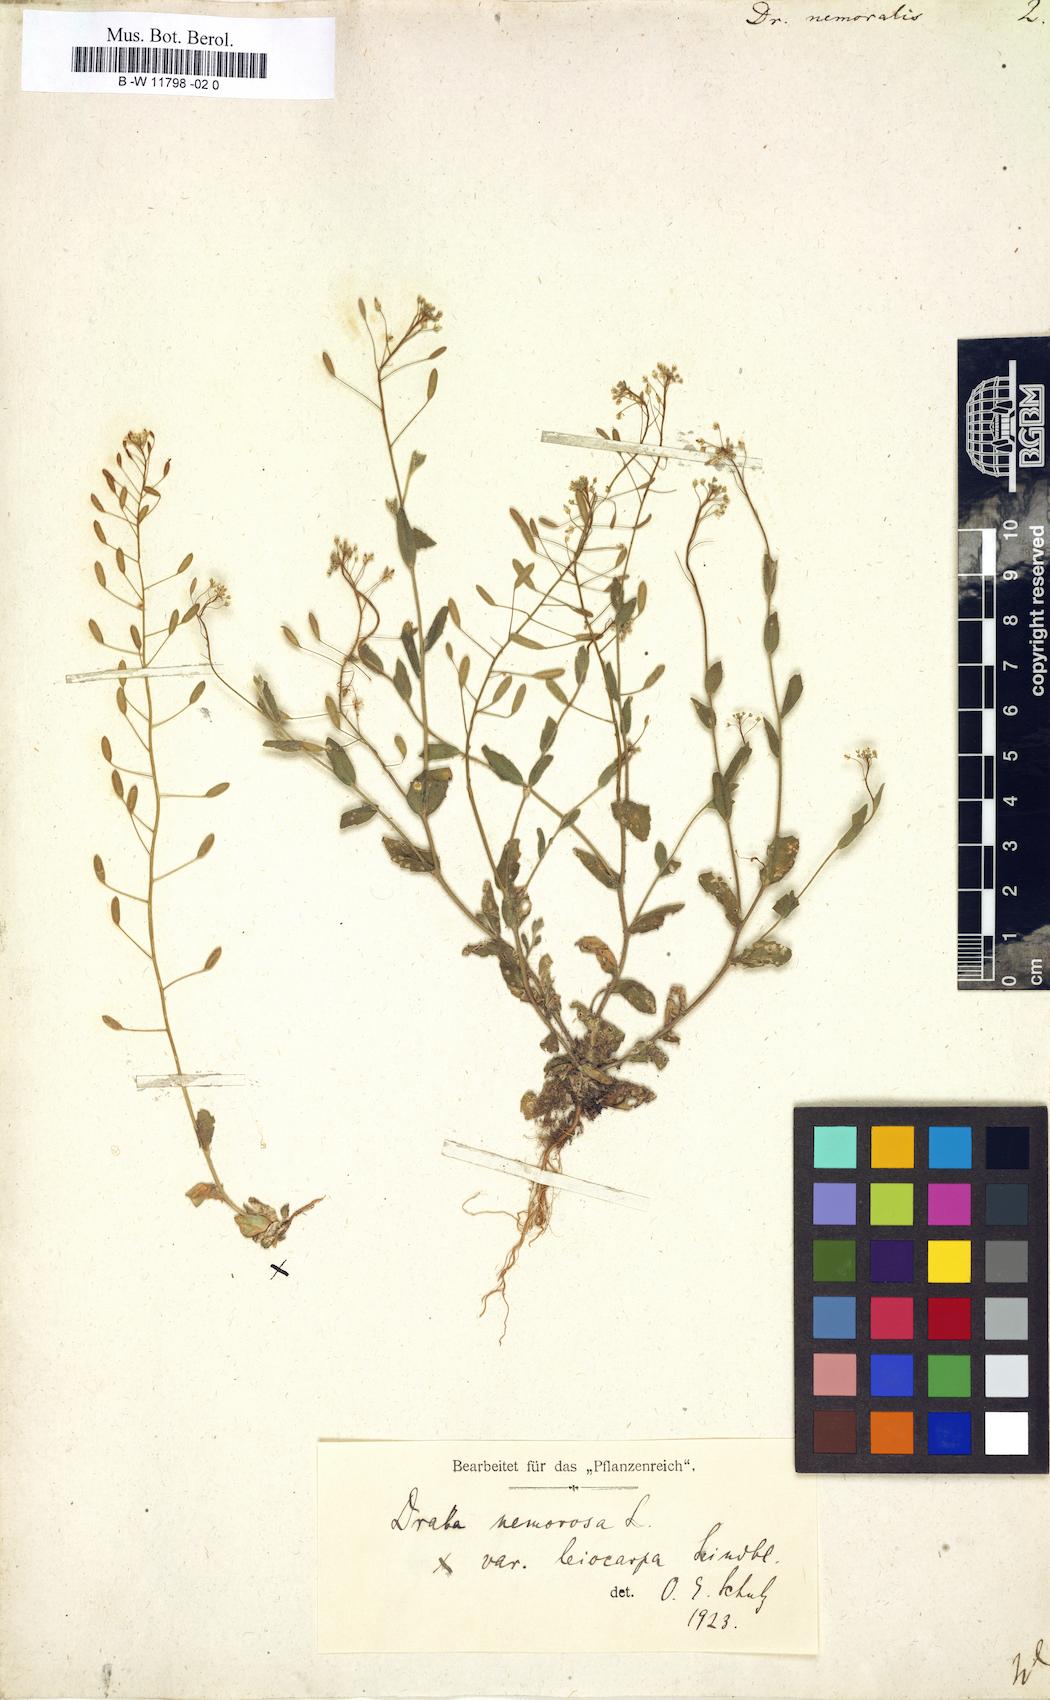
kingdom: Plantae
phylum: Tracheophyta
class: Magnoliopsida
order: Brassicales
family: Brassicaceae
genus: Draba
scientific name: Draba nemoralis
